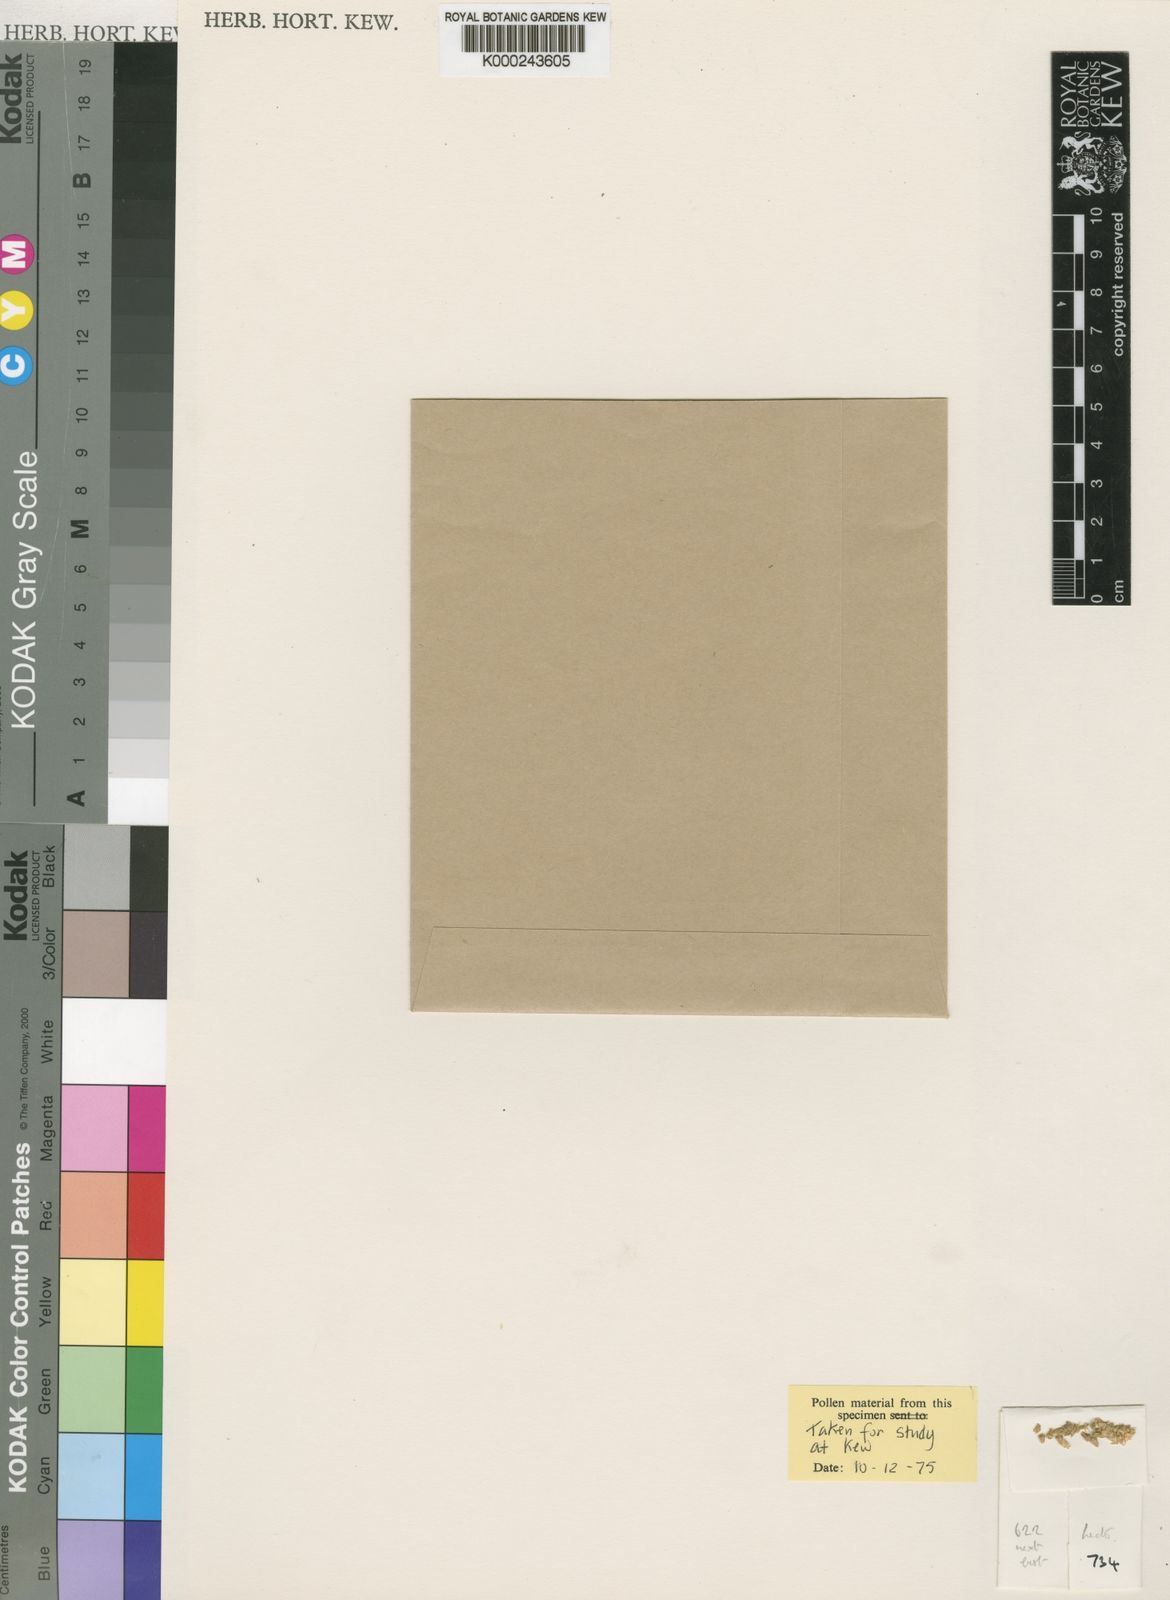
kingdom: Plantae
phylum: Tracheophyta
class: Magnoliopsida
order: Caryophyllales
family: Amaranthaceae
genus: Centemopsis
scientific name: Centemopsis micrantha
